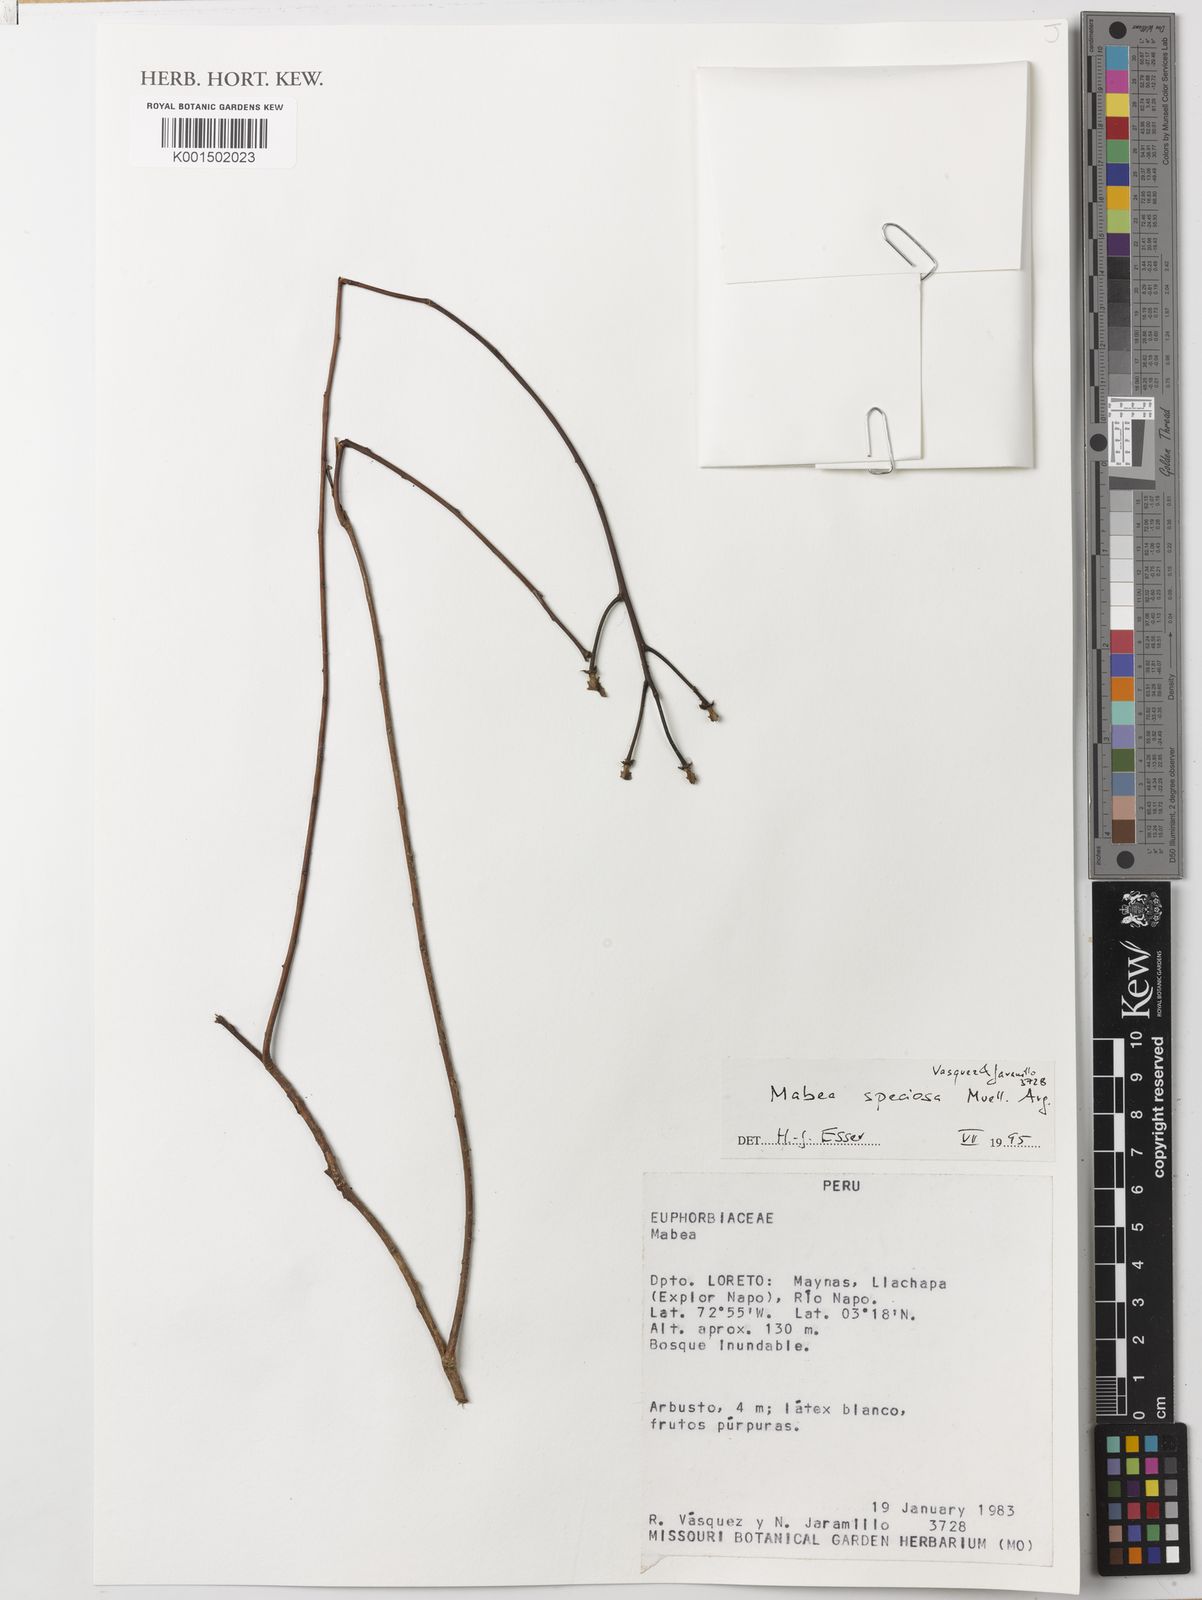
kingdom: Plantae
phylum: Tracheophyta
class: Magnoliopsida
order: Malpighiales
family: Euphorbiaceae
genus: Mabea
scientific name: Mabea speciosa
